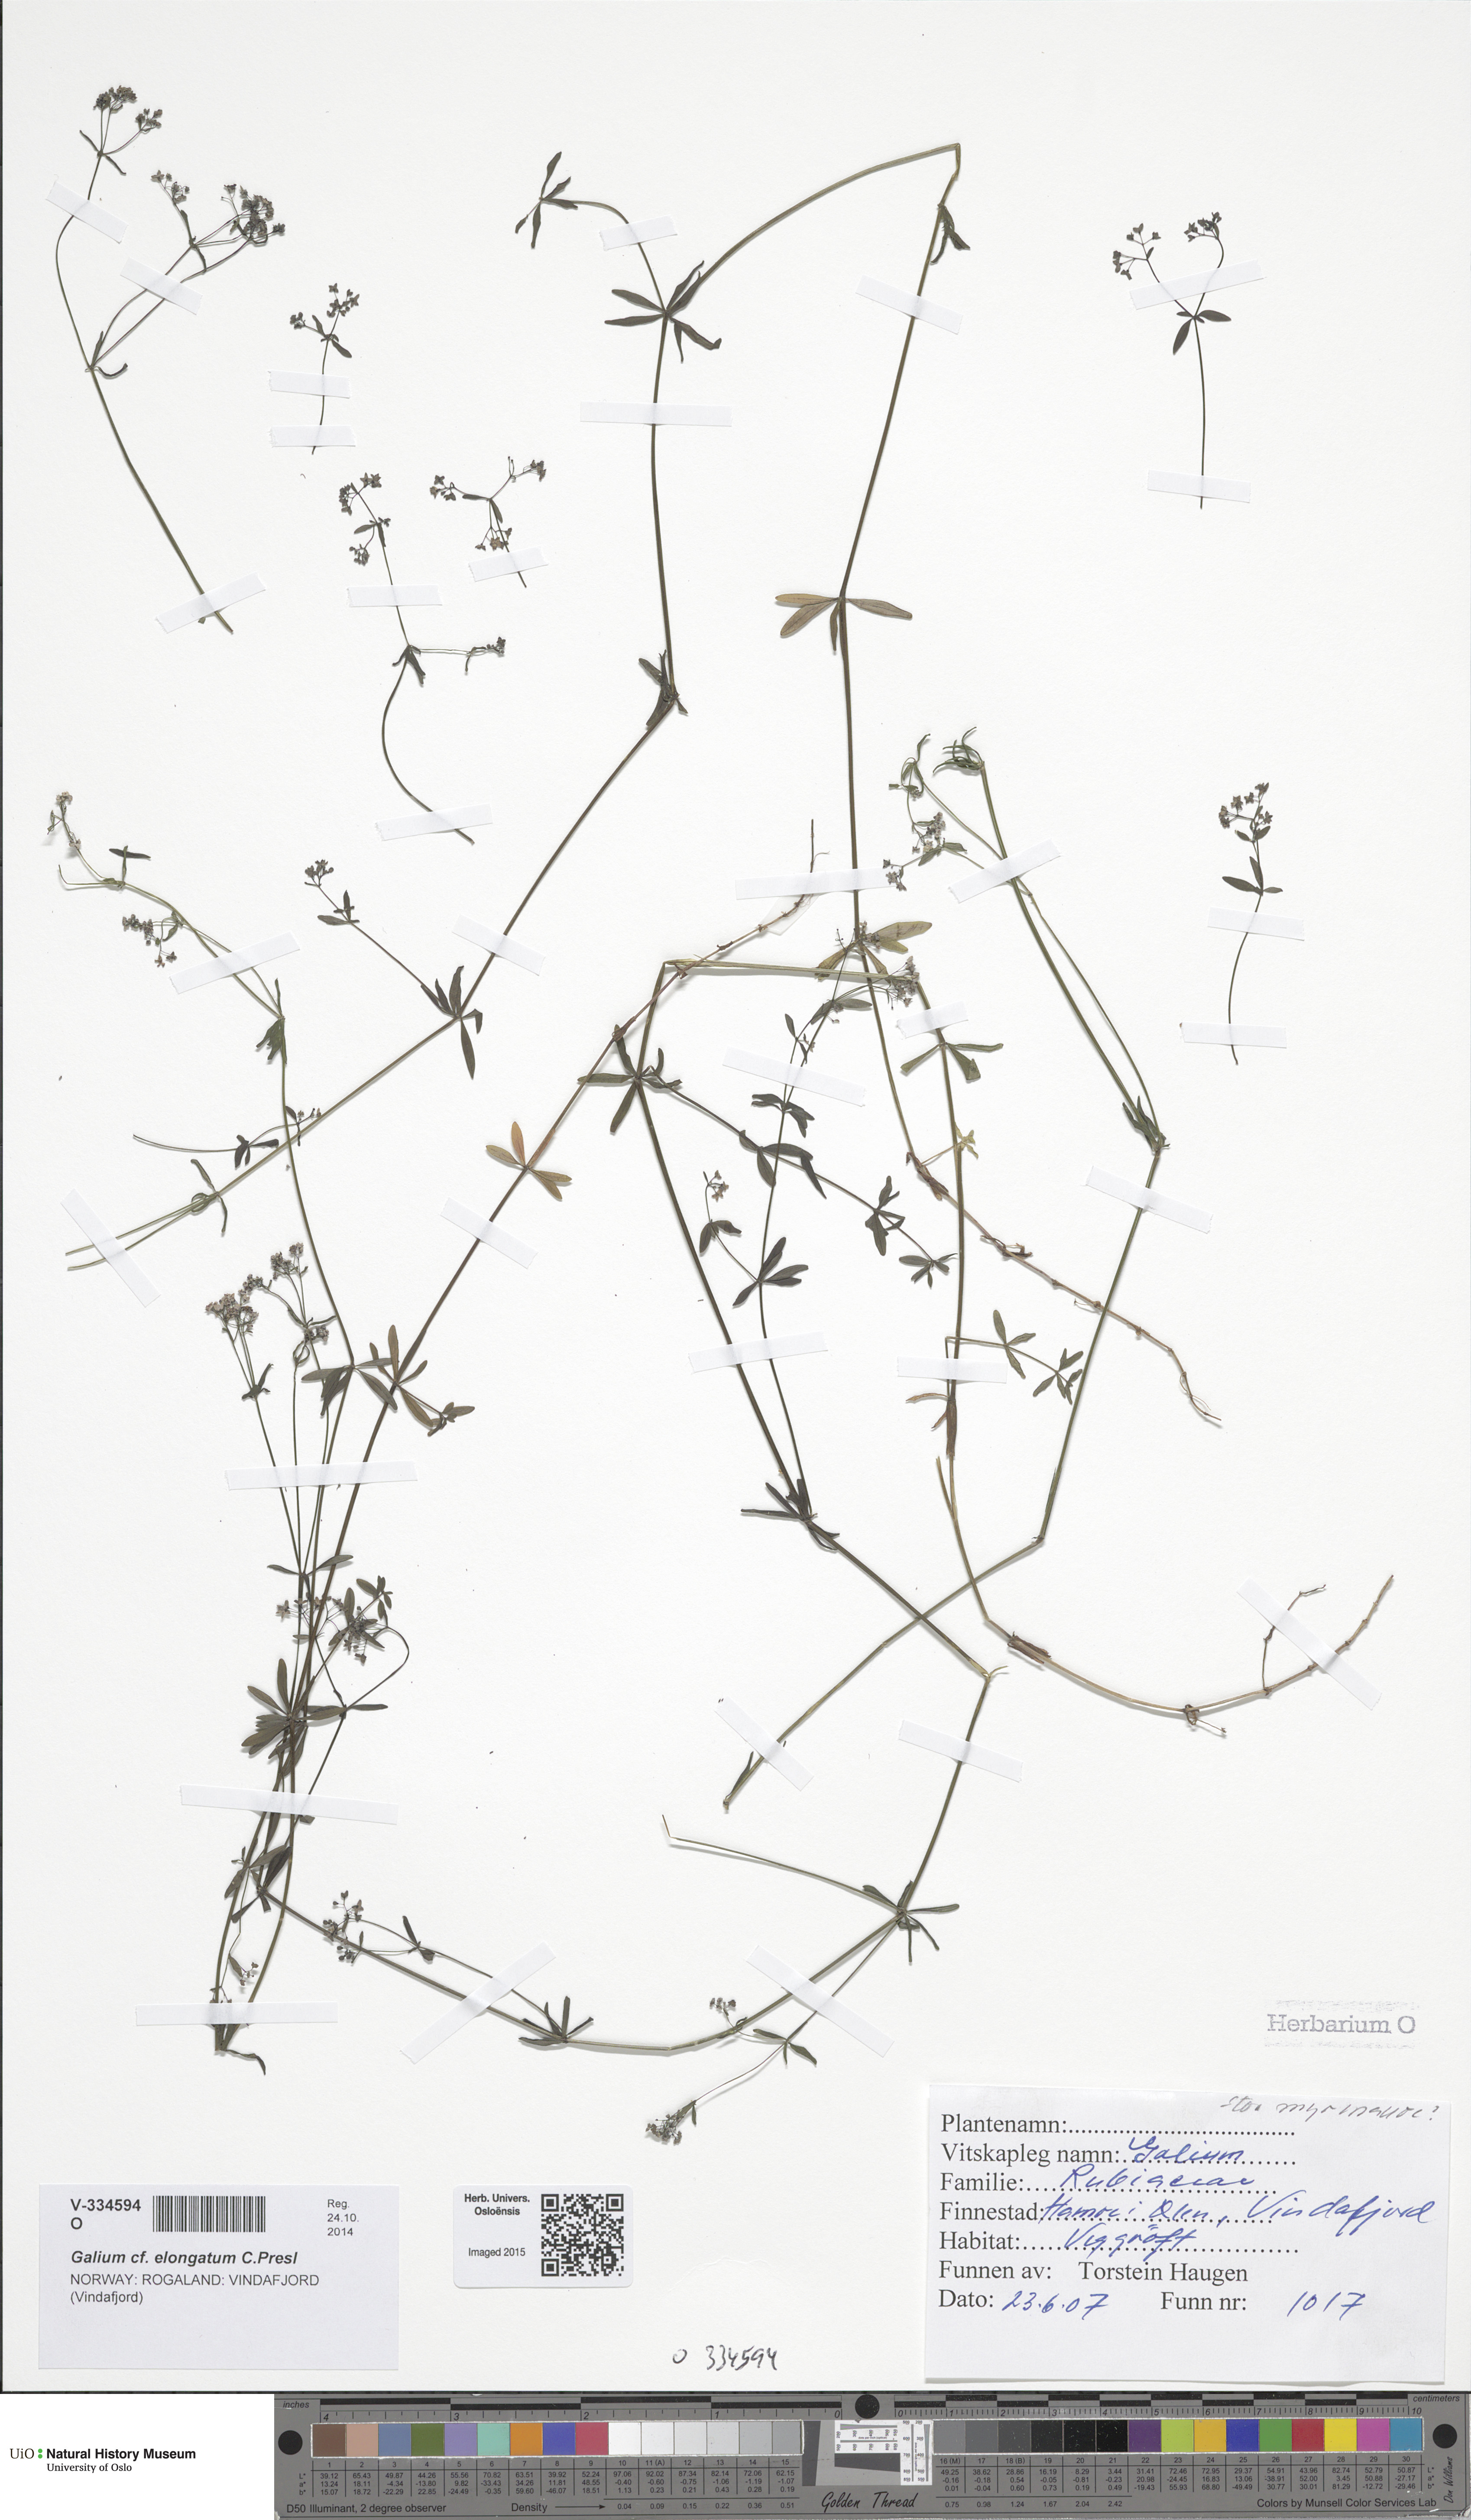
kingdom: Plantae
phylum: Tracheophyta
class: Magnoliopsida
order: Gentianales
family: Rubiaceae
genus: Galium
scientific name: Galium palustre
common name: Common marsh-bedstraw
